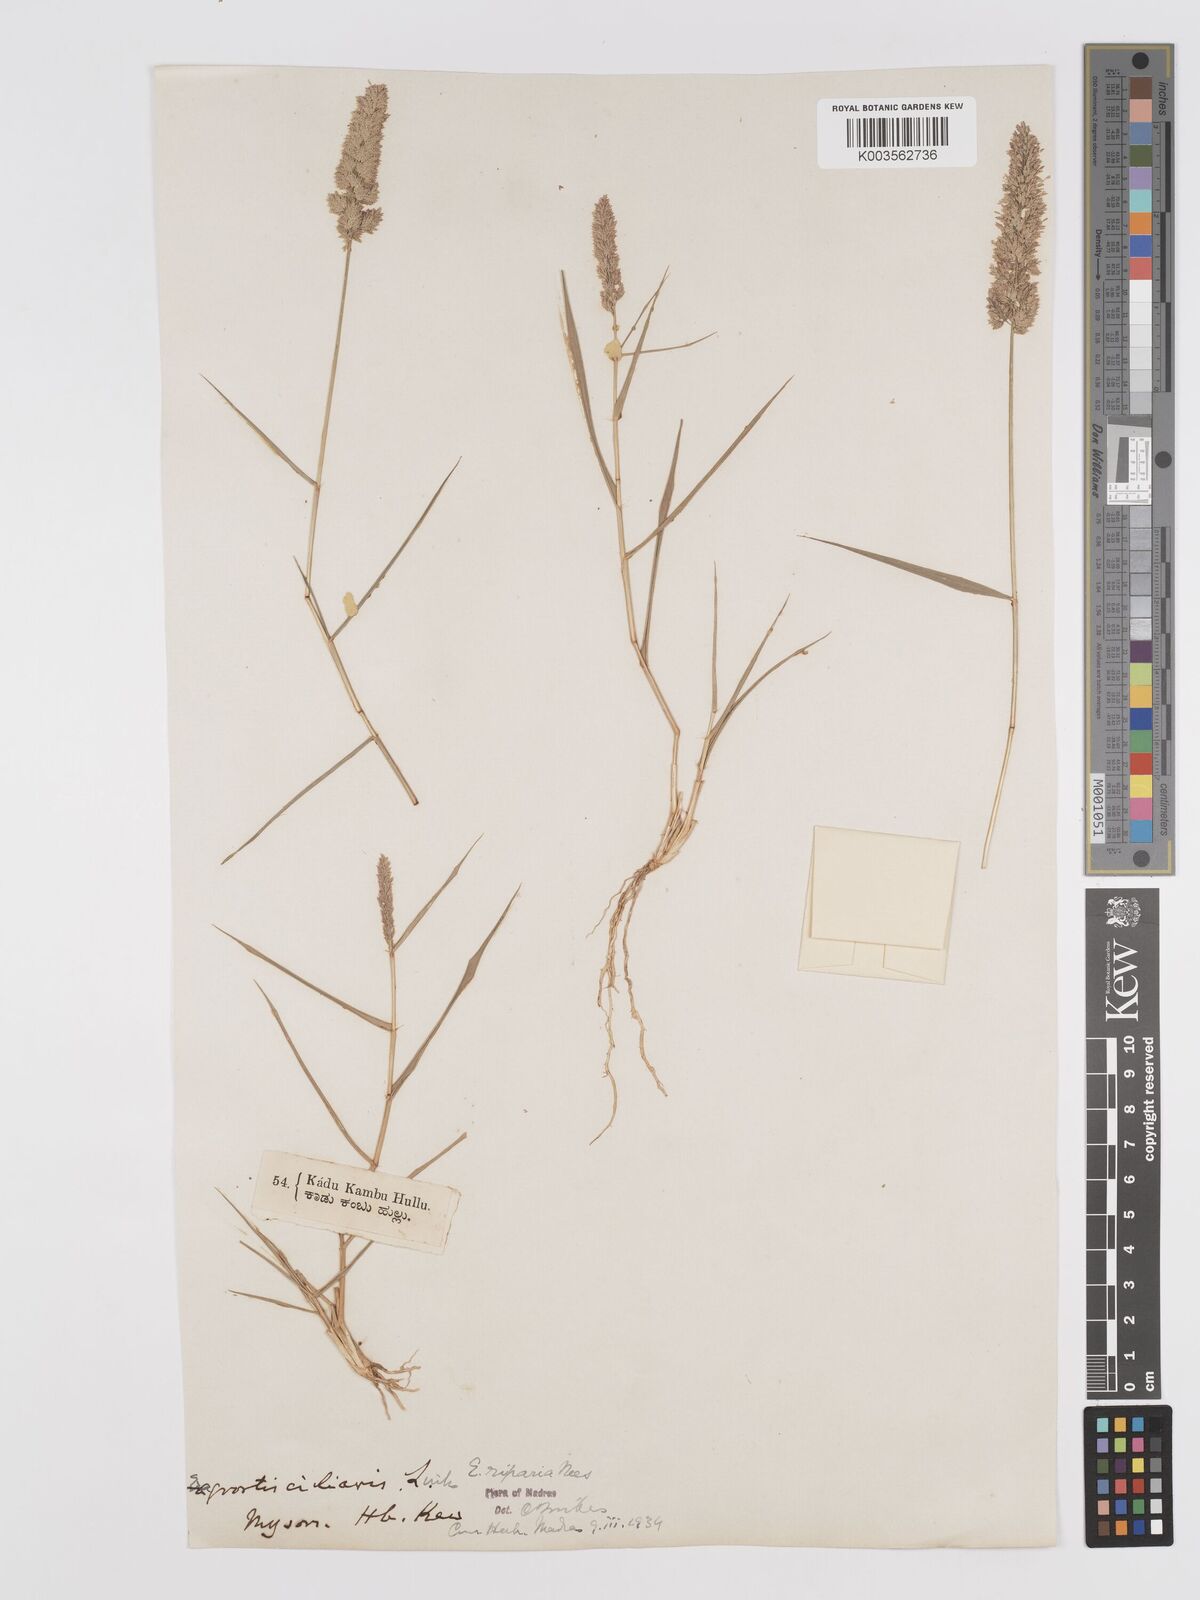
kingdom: Plantae
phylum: Tracheophyta
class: Liliopsida
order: Poales
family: Poaceae
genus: Eragrostis
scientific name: Eragrostis riparia
